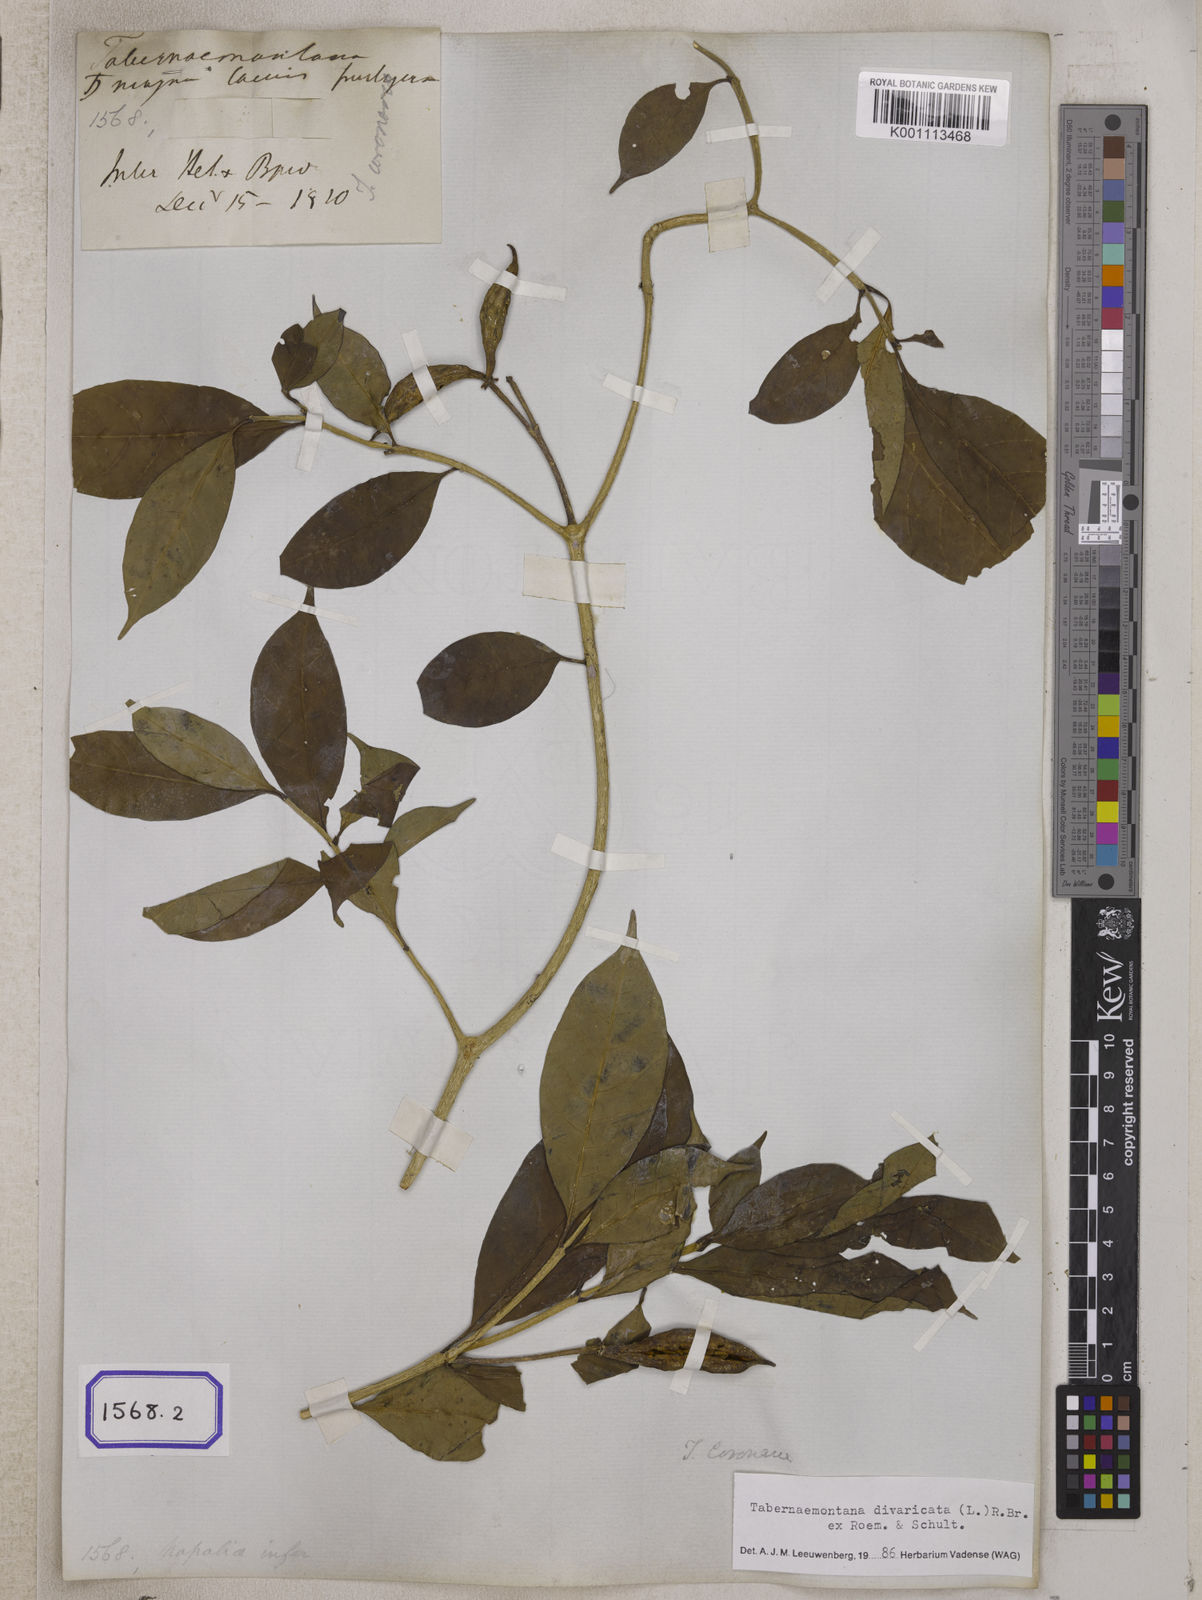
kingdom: Plantae
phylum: Tracheophyta
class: Magnoliopsida
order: Gentianales
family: Apocynaceae
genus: Tabernaemontana
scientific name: Tabernaemontana divaricata
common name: Pinwheelflower
